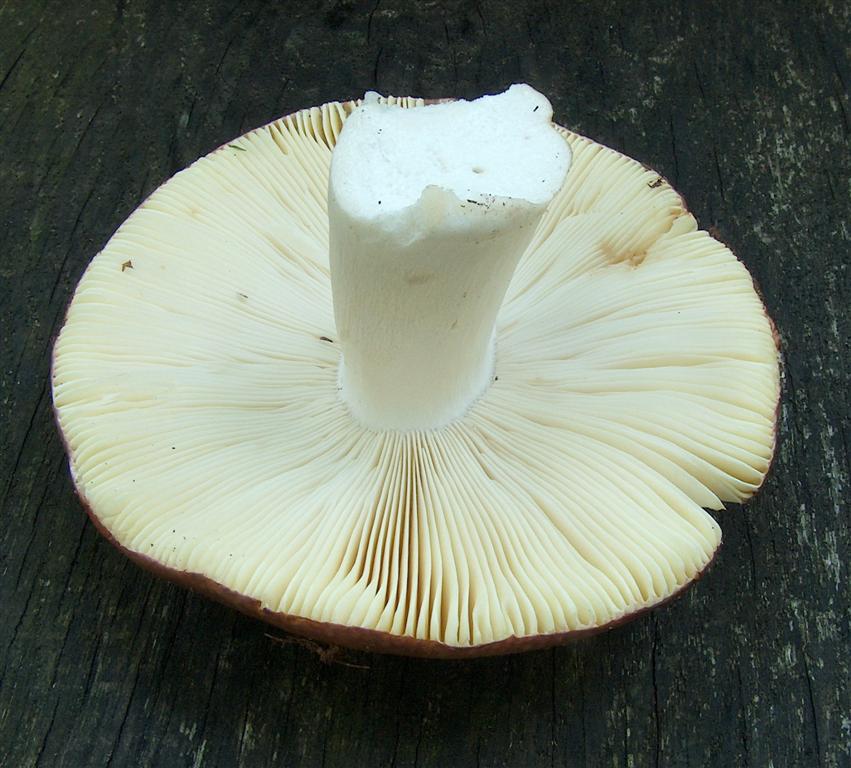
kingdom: Fungi
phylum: Basidiomycota
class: Agaricomycetes
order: Russulales
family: Russulaceae
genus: Russula
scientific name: Russula romellii
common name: romells skørhat
